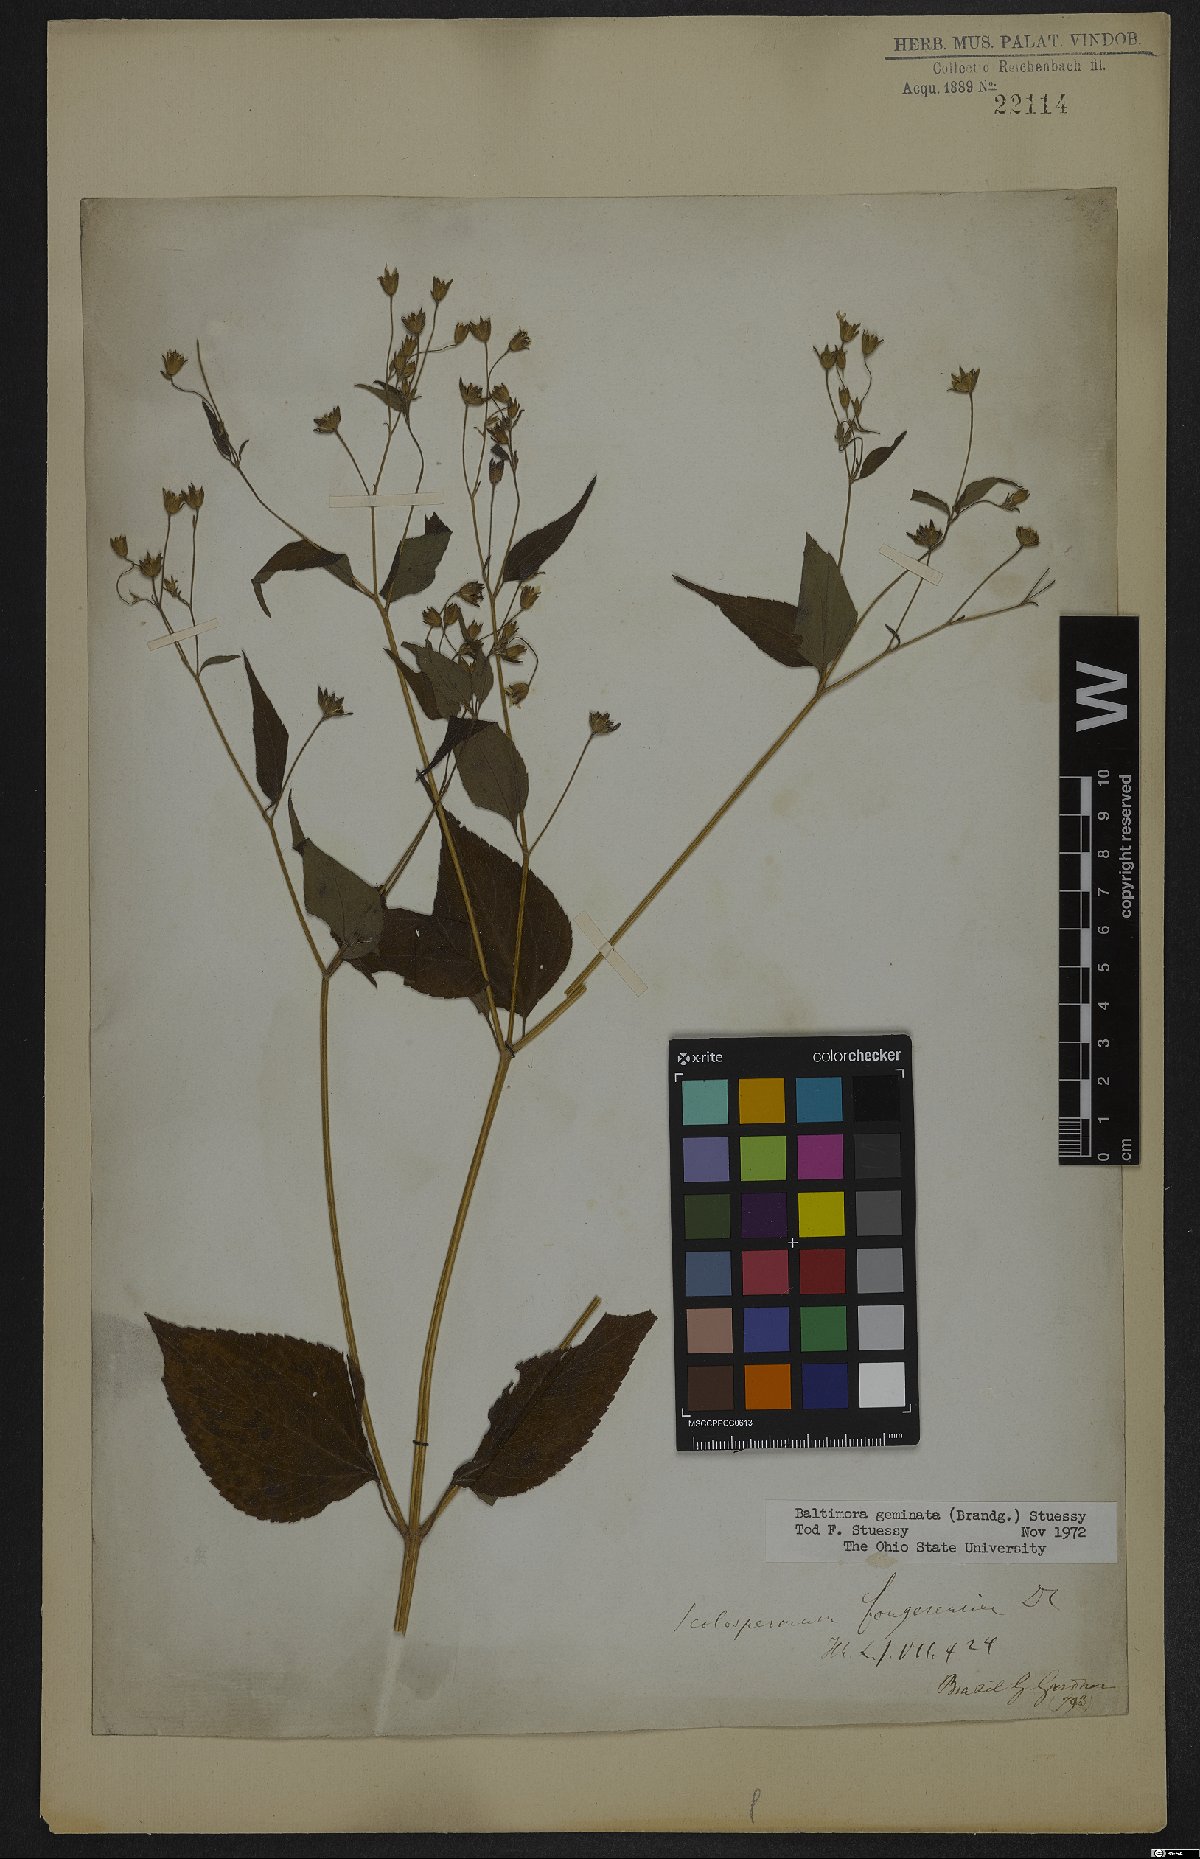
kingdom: Plantae
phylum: Tracheophyta
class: Magnoliopsida
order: Asterales
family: Asteraceae
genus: Baltimora
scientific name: Baltimora geminata
